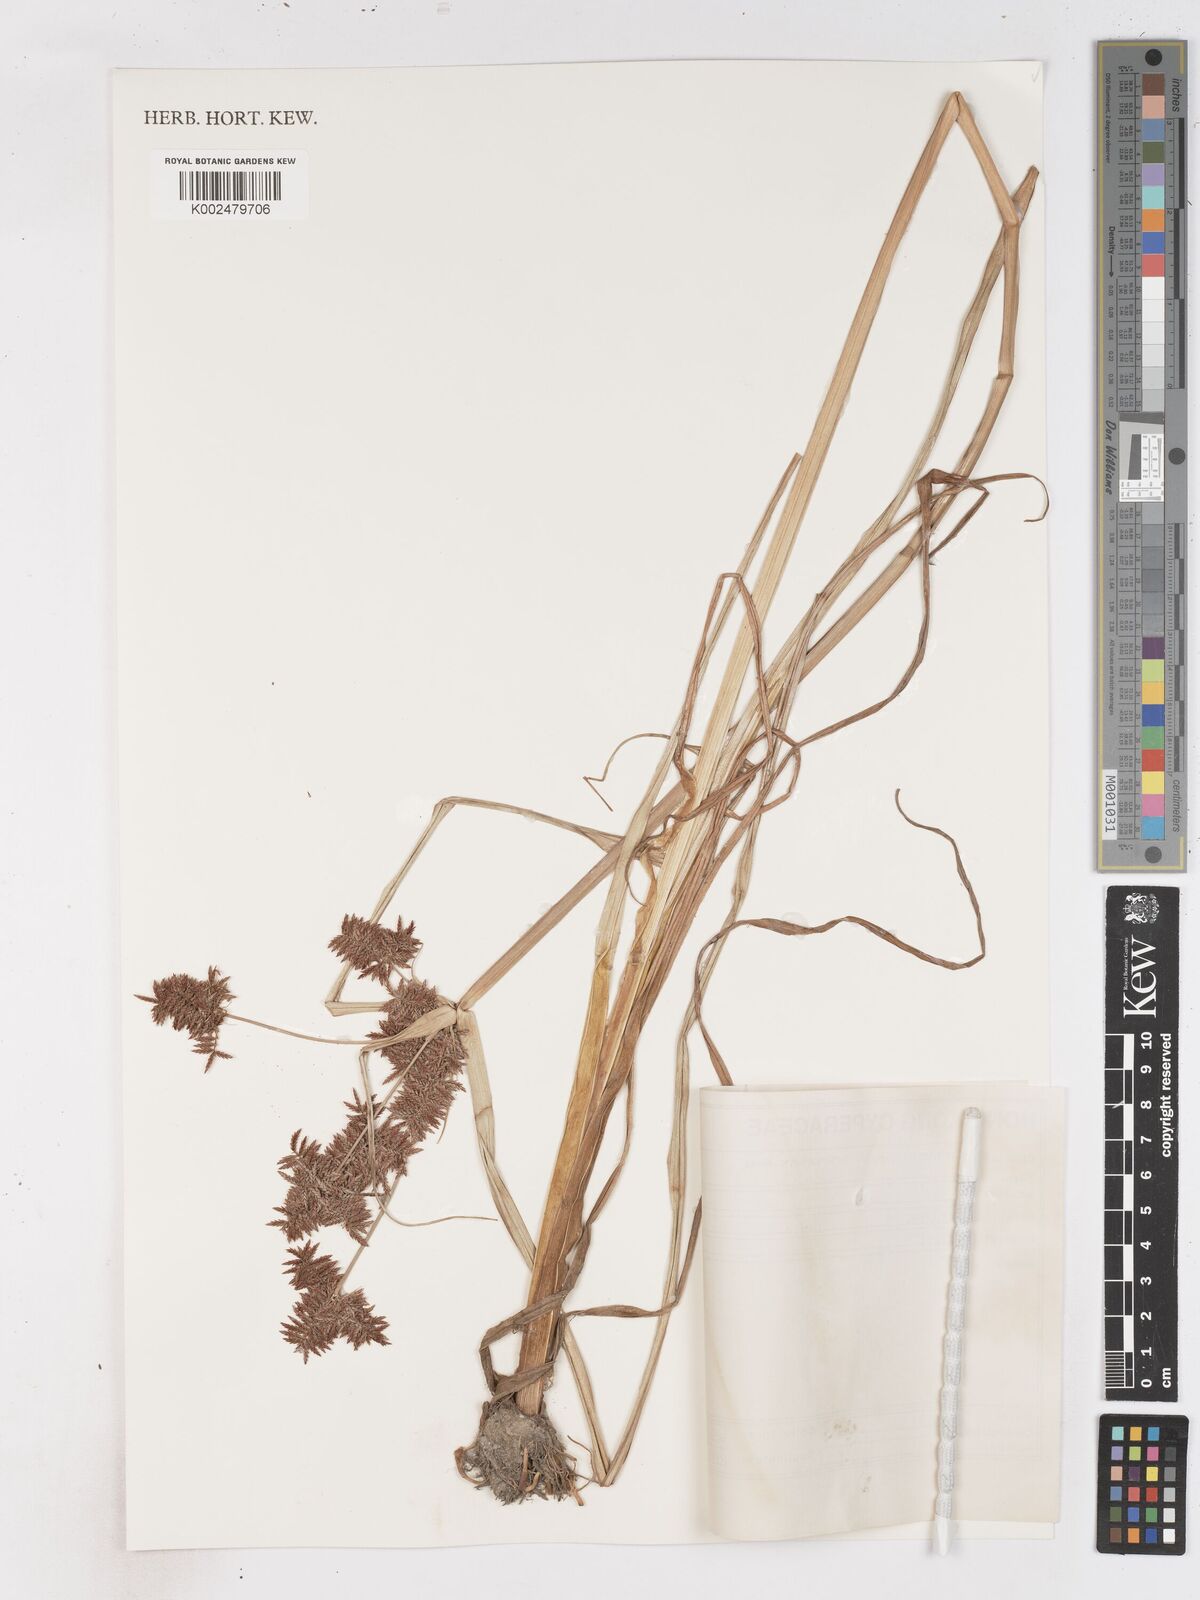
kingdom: Plantae
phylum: Tracheophyta
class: Liliopsida
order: Poales
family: Cyperaceae
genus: Cyperus
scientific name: Cyperus pilosus
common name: Fuzzy flatsedge
